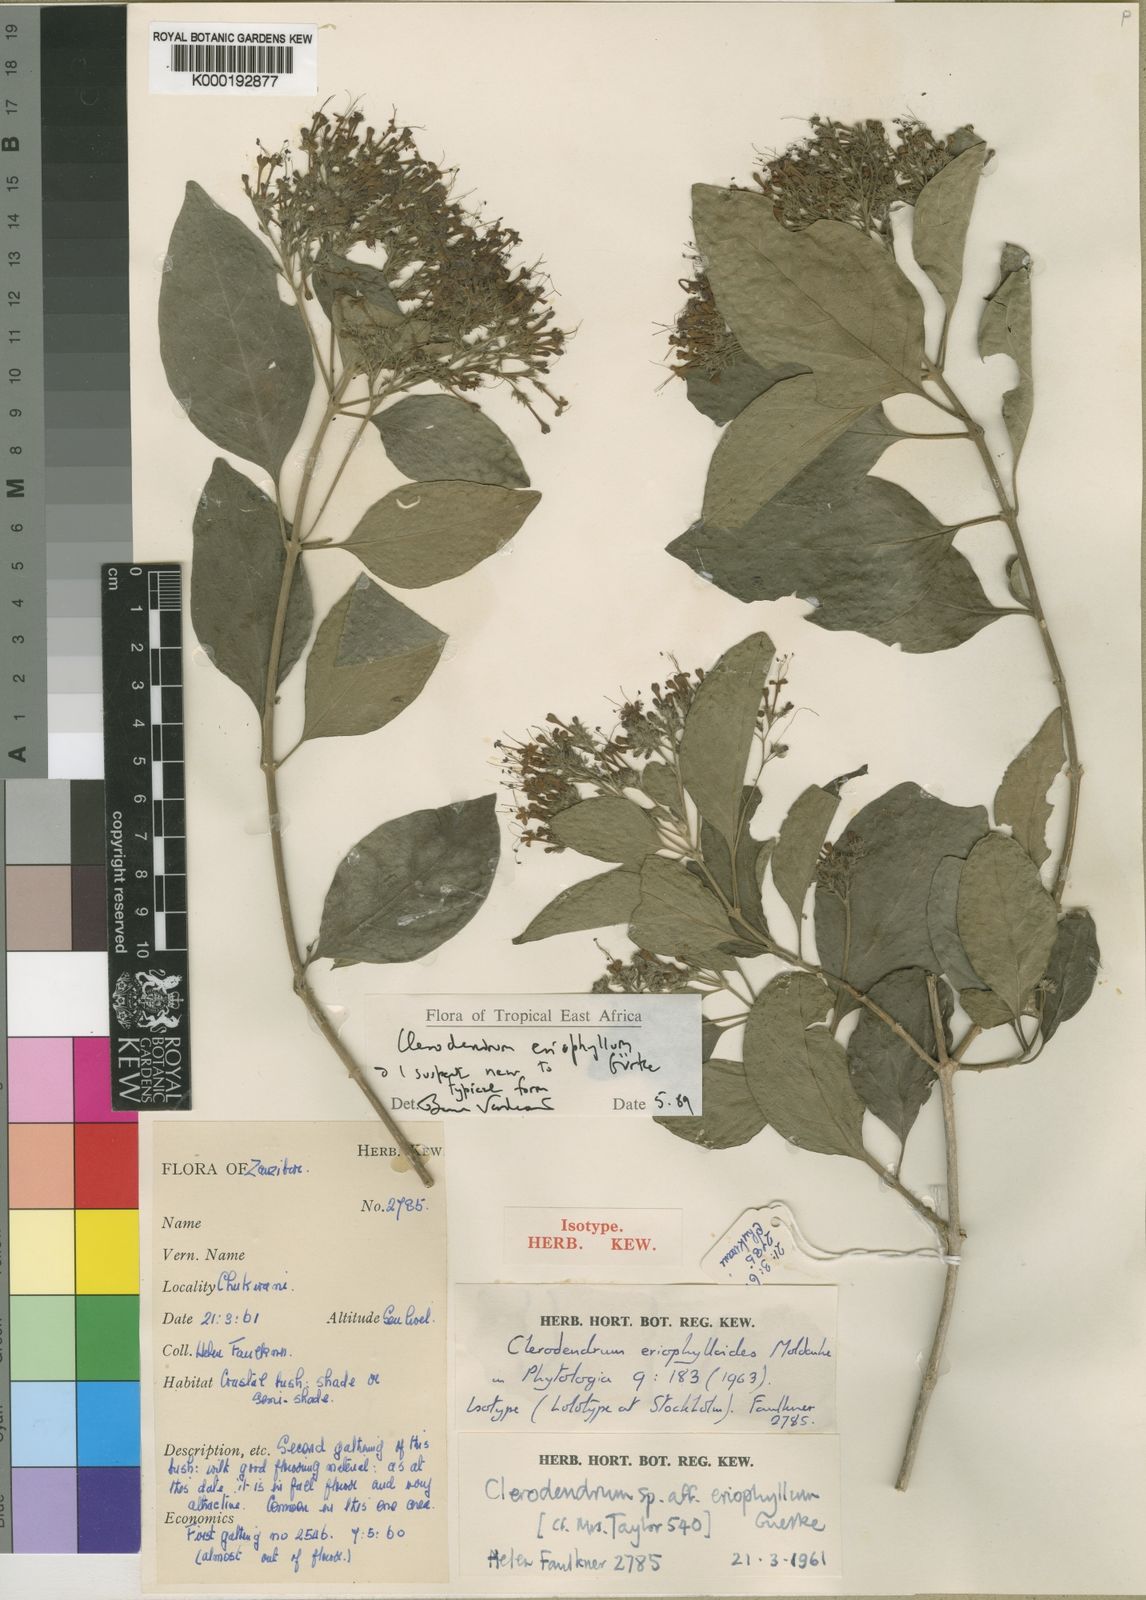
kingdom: Plantae
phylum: Tracheophyta
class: Magnoliopsida
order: Lamiales
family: Lamiaceae
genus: Clerodendrum
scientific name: Clerodendrum
